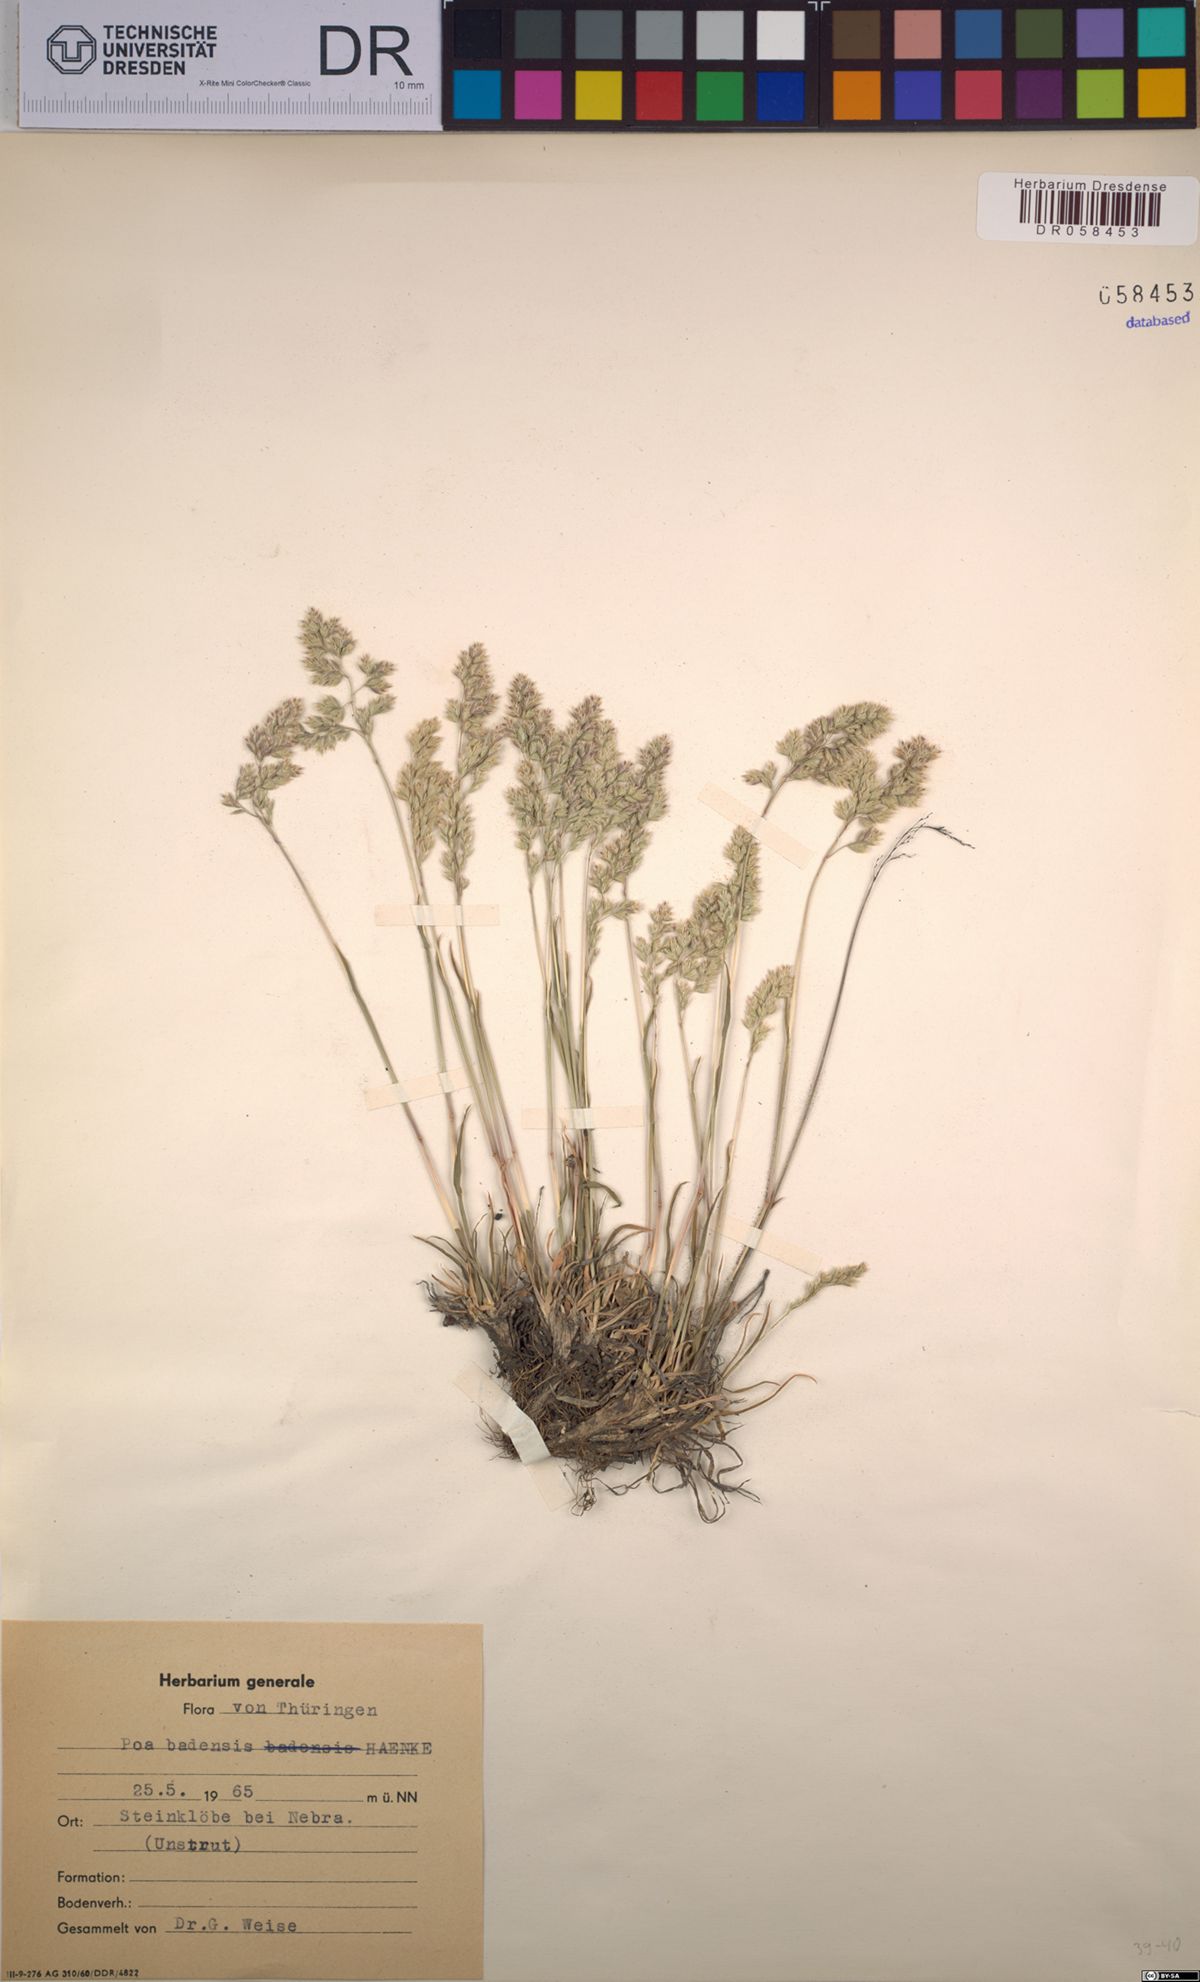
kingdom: Plantae
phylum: Tracheophyta
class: Liliopsida
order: Poales
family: Poaceae
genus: Poa
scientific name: Poa badensis
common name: Baden's bluegrass
